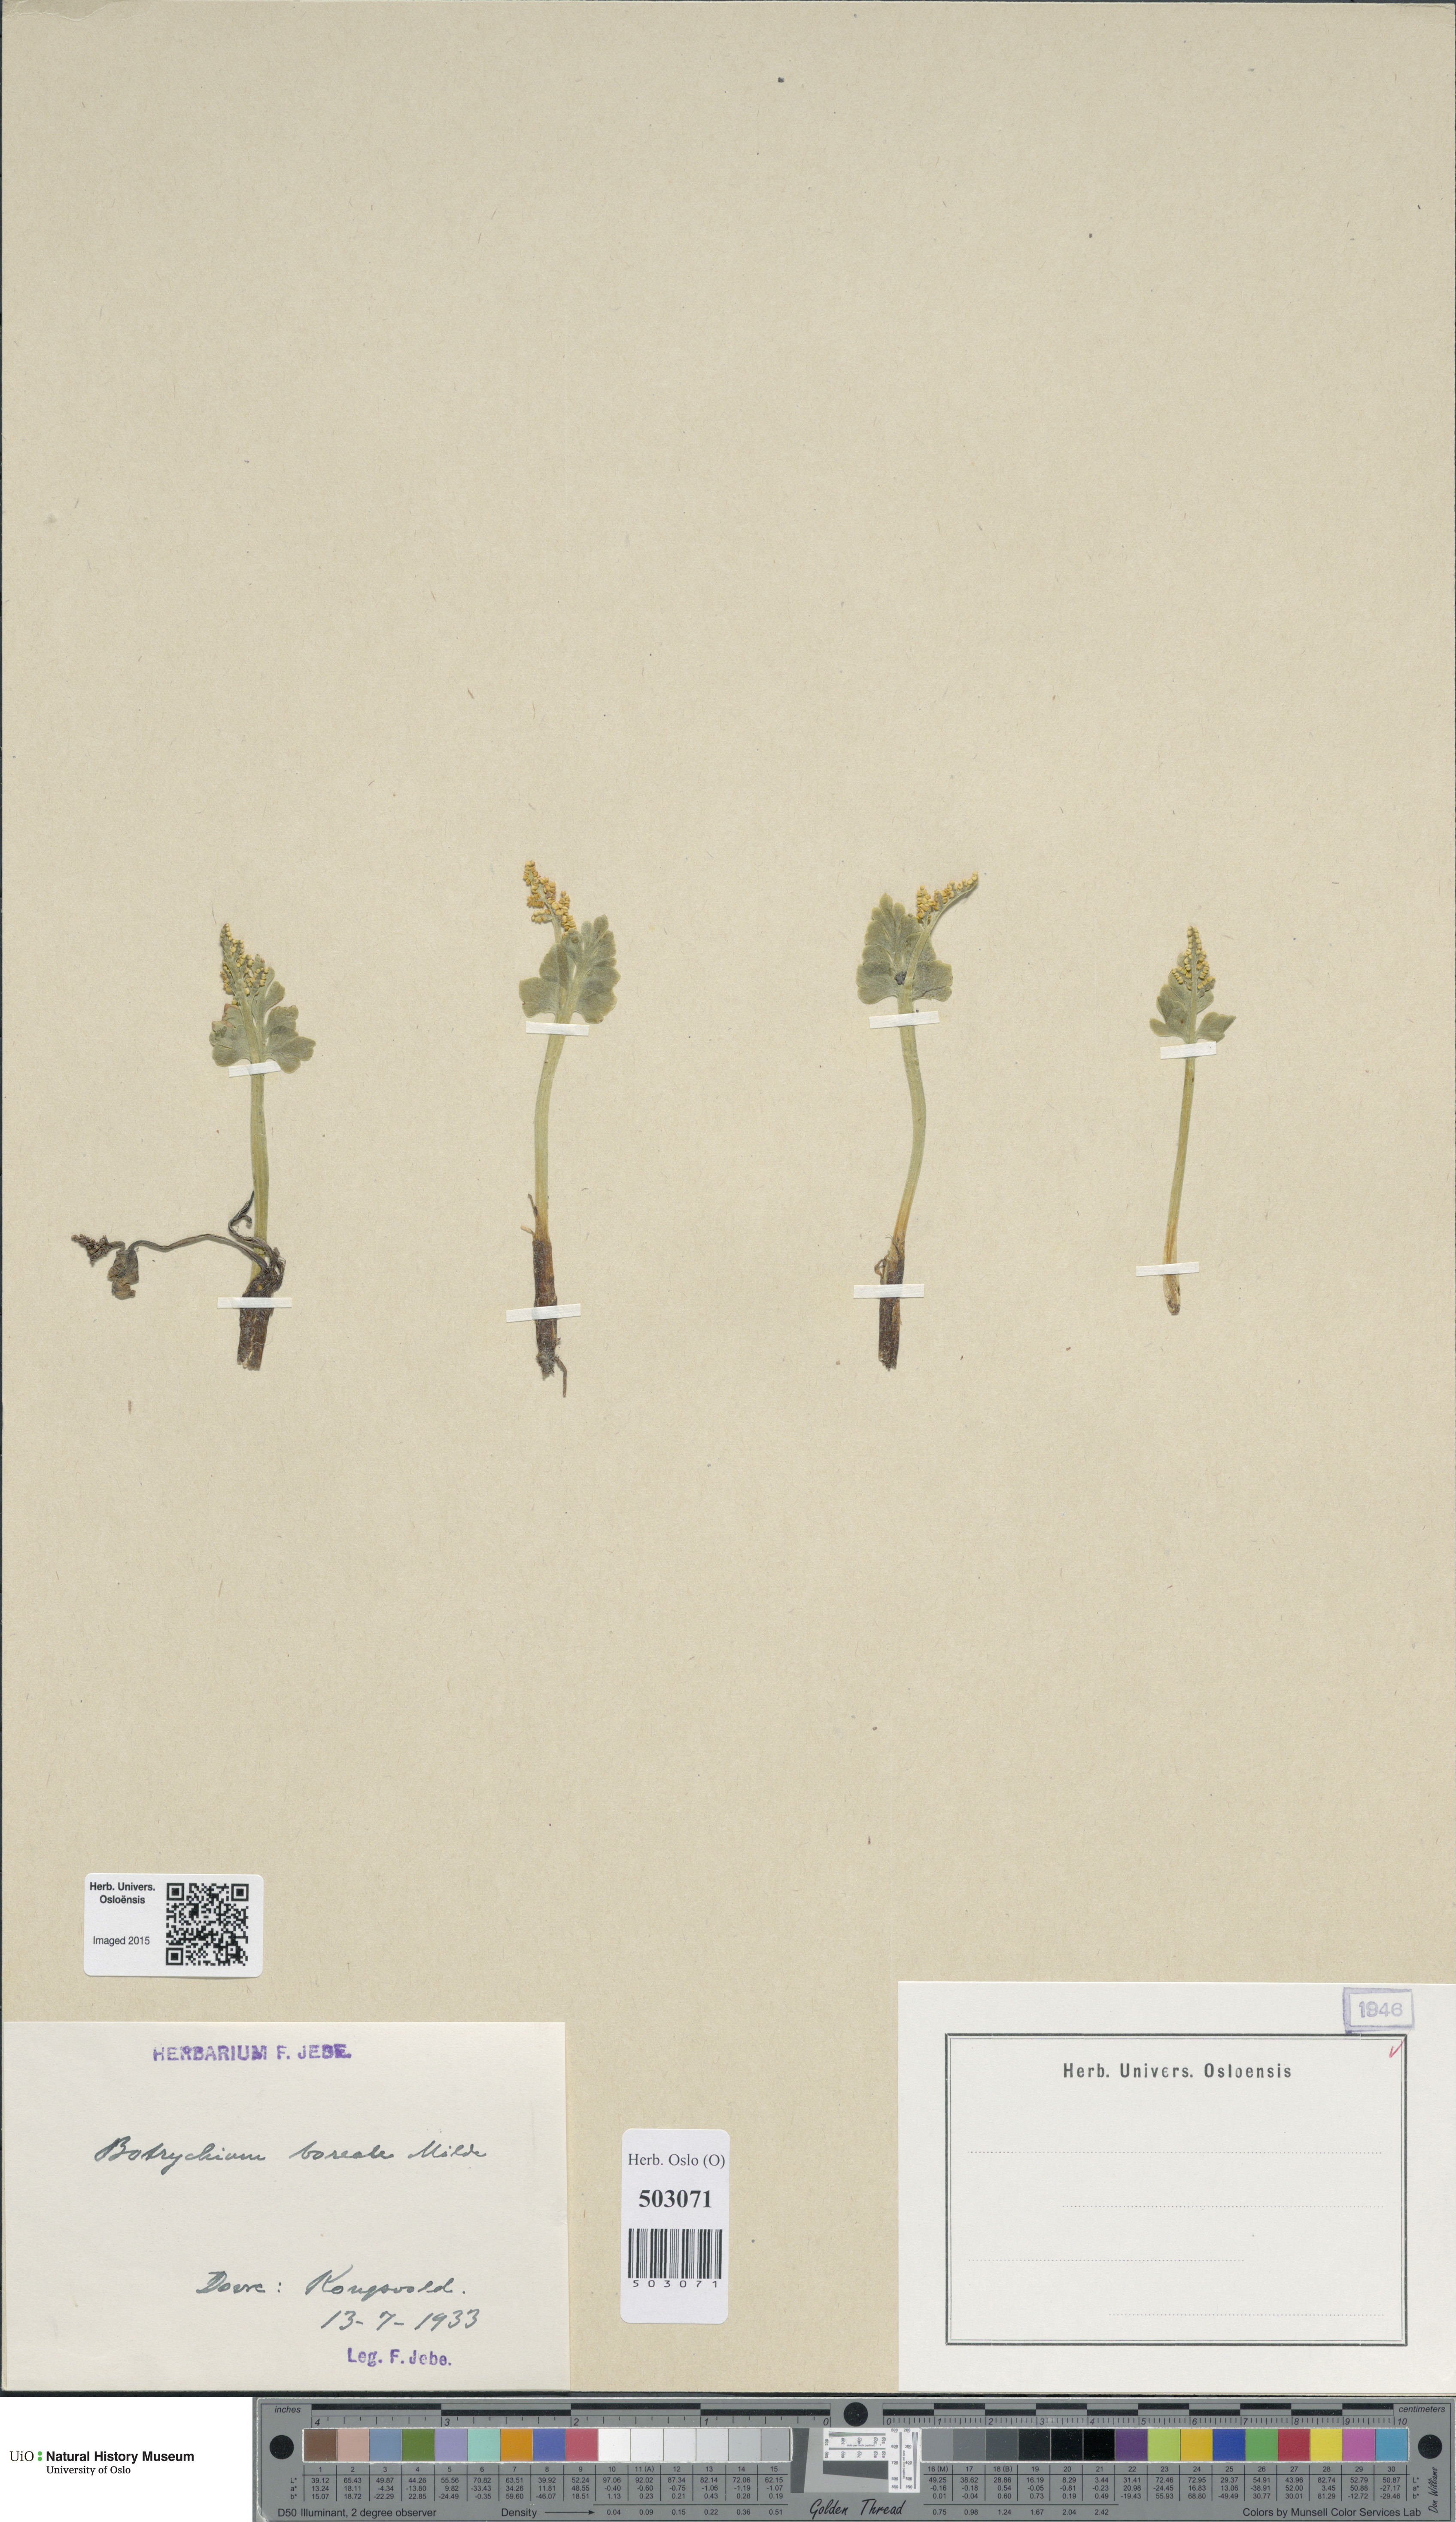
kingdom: Plantae
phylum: Tracheophyta
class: Polypodiopsida
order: Ophioglossales
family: Ophioglossaceae
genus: Botrychium
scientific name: Botrychium boreale
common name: Boreal moonwort
